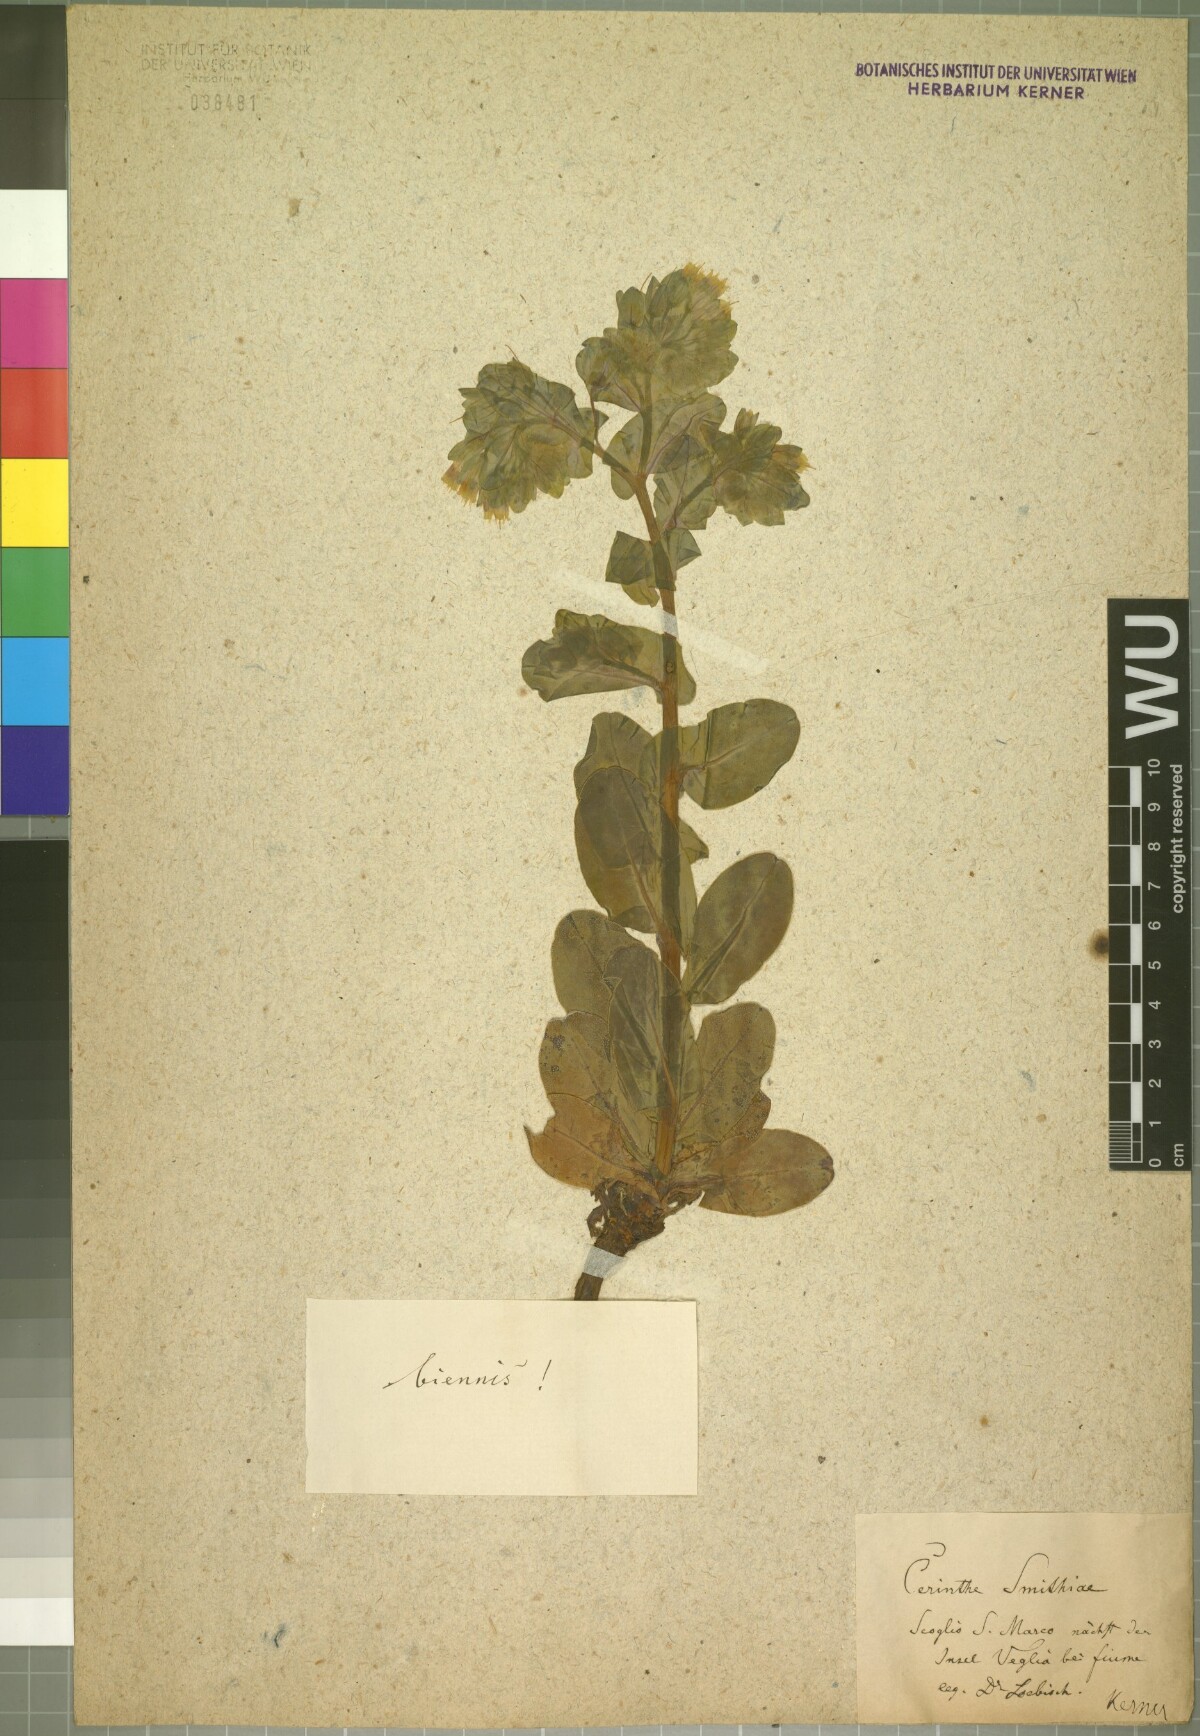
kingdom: Plantae
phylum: Tracheophyta
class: Magnoliopsida
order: Boraginales
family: Boraginaceae
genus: Cerinthe
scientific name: Cerinthe glabra
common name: Smooth honeywort
